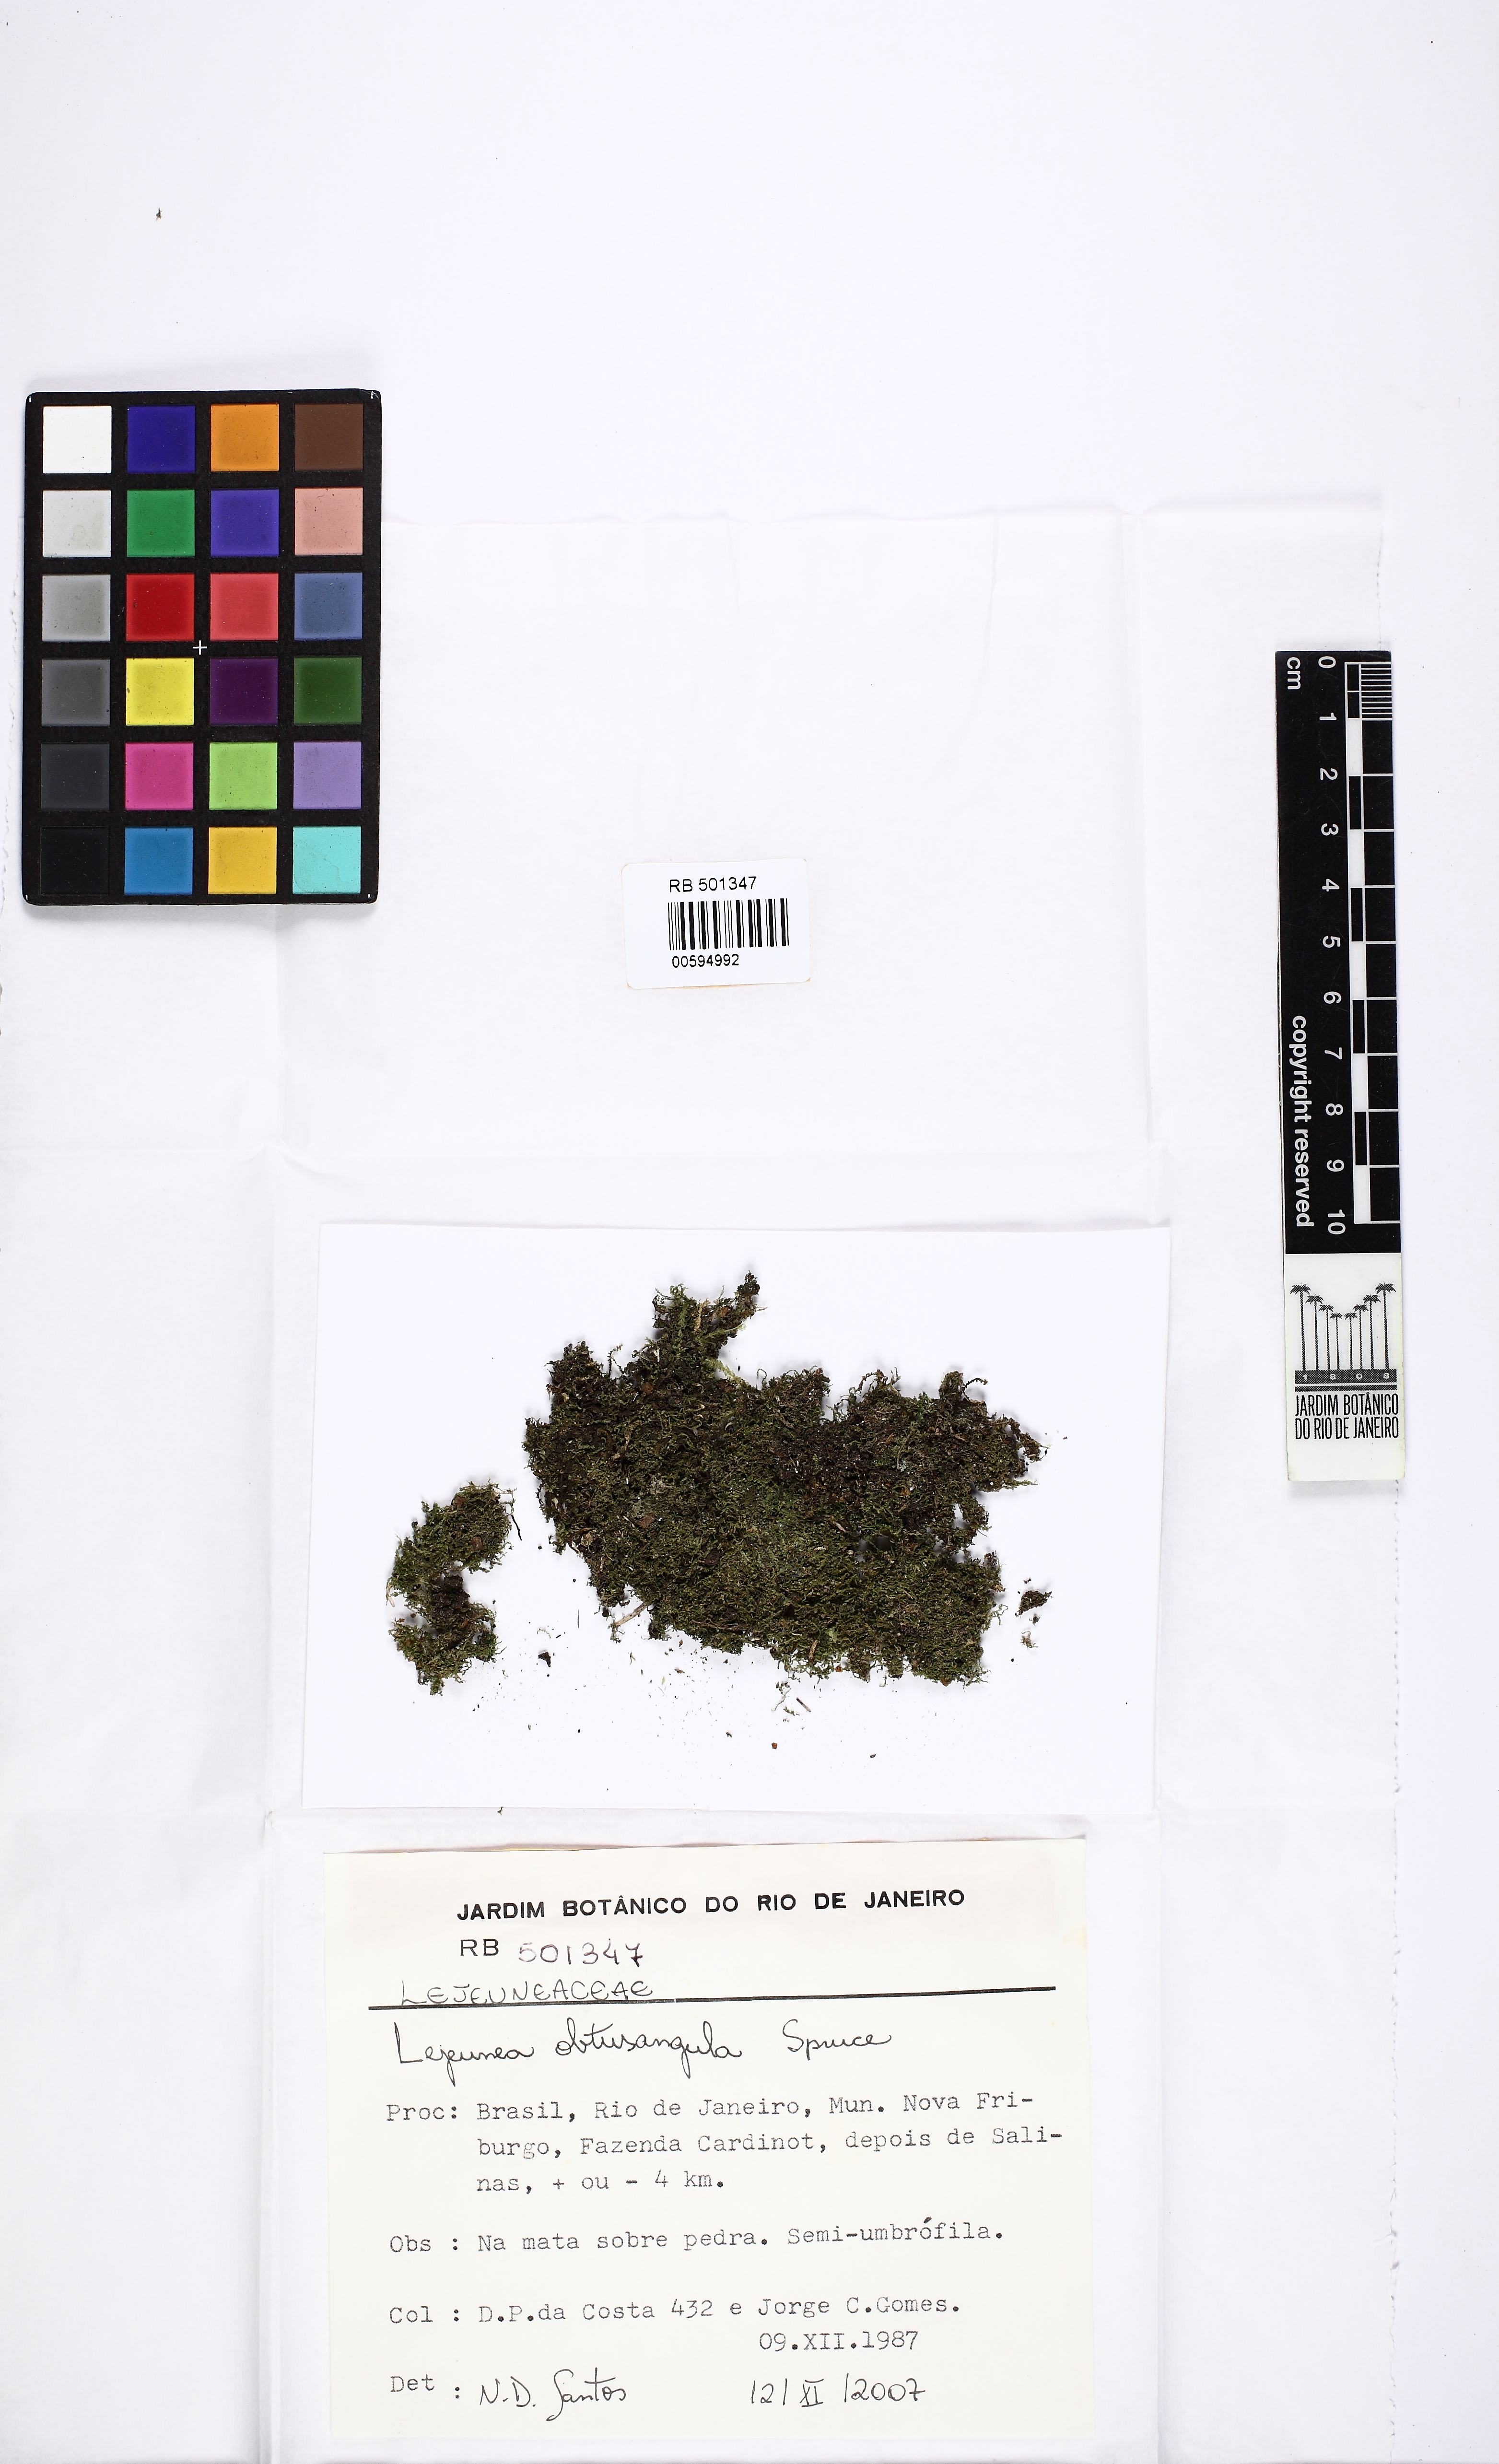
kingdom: Plantae
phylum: Marchantiophyta
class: Jungermanniopsida
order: Porellales
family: Lejeuneaceae
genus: Lejeunea
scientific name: Lejeunea flaccida
